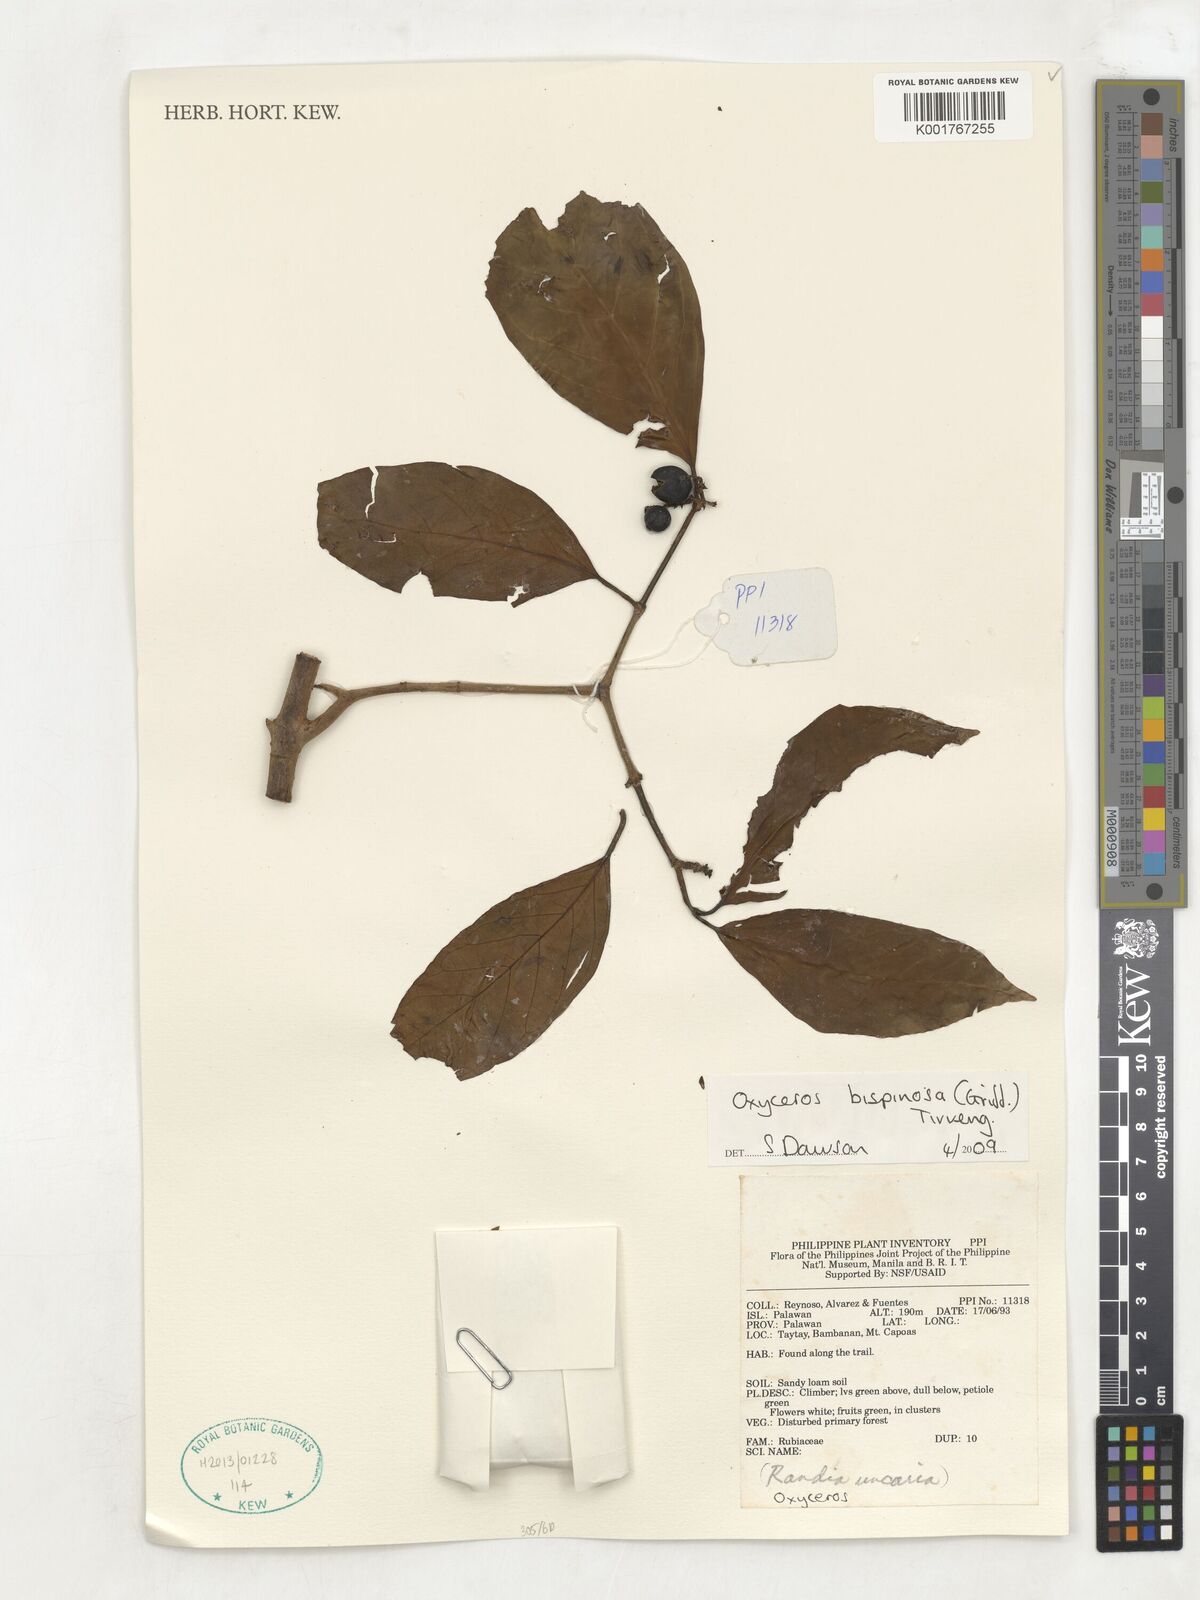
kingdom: Plantae
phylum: Tracheophyta
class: Magnoliopsida
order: Gentianales
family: Rubiaceae
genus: Oxyceros
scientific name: Oxyceros bispinosus
